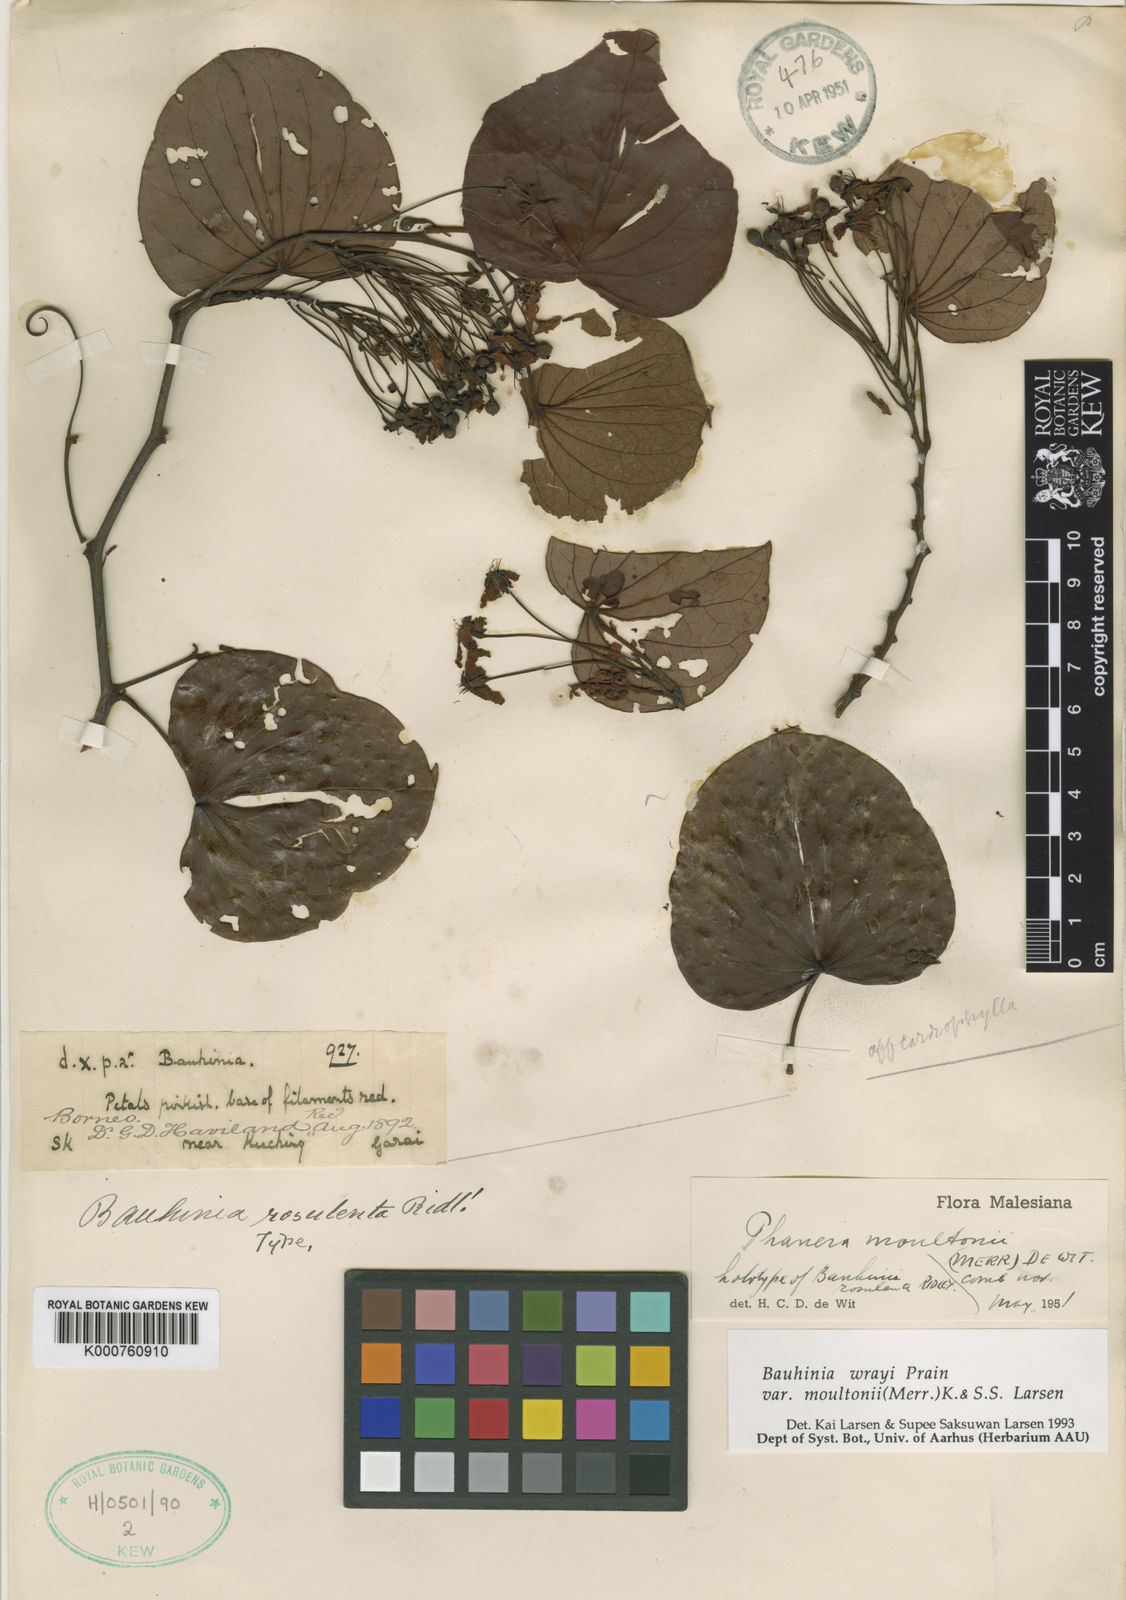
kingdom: Plantae
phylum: Tracheophyta
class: Magnoliopsida
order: Fabales
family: Fabaceae
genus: Phanera
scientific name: Phanera wrayi
